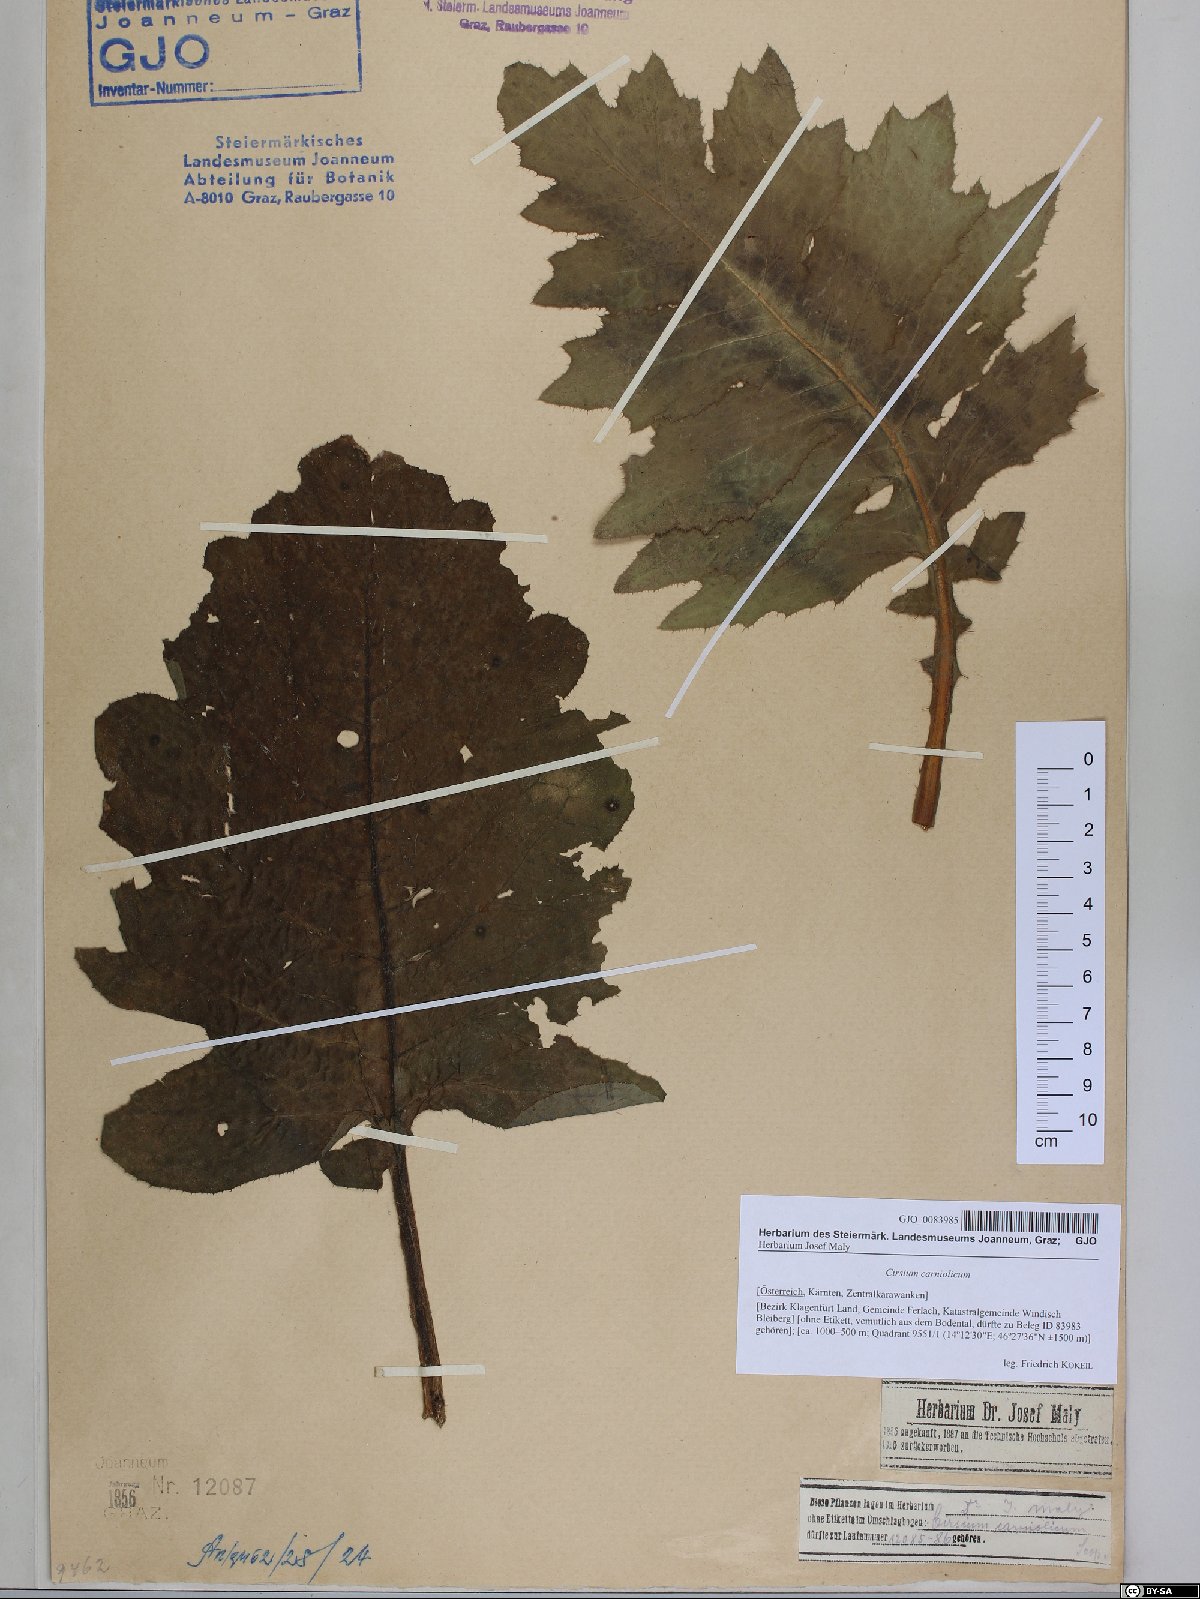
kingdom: Plantae
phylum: Tracheophyta
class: Magnoliopsida
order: Asterales
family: Asteraceae
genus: Cirsium
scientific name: Cirsium carniolicum
